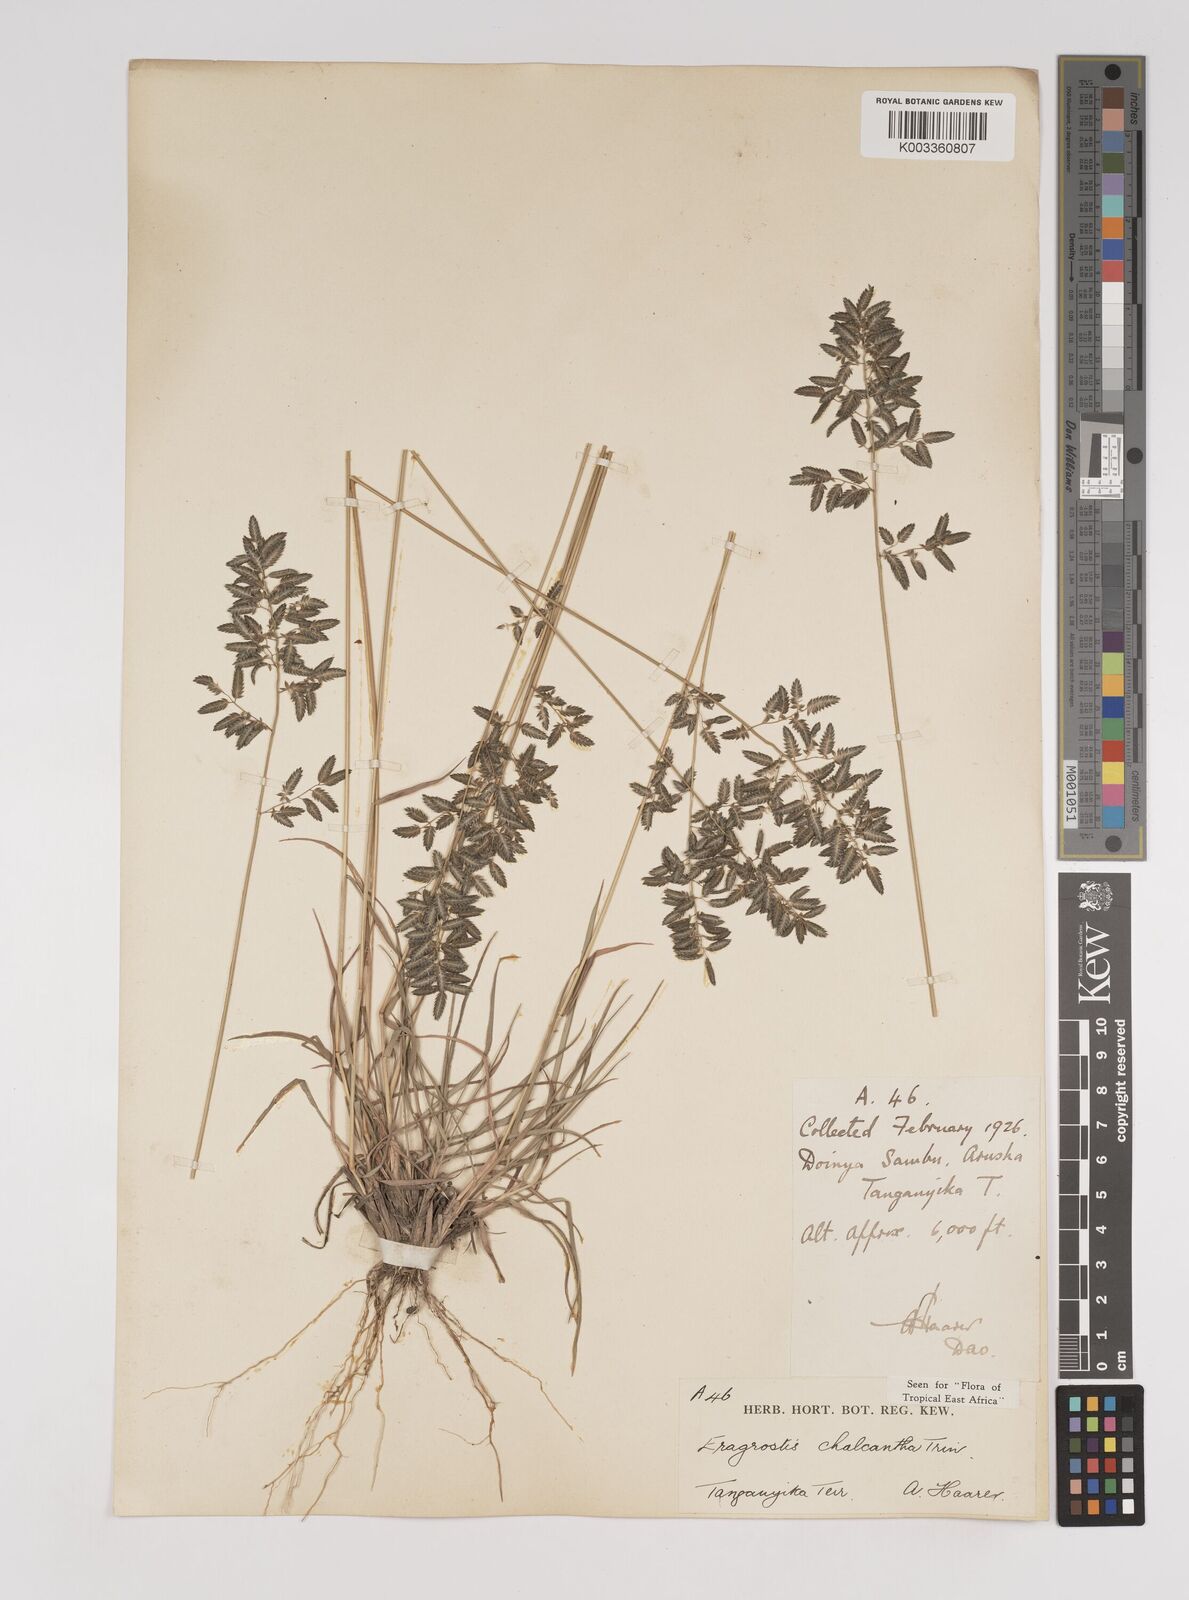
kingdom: Plantae
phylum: Tracheophyta
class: Liliopsida
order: Poales
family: Poaceae
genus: Eragrostis
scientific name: Eragrostis racemosa
